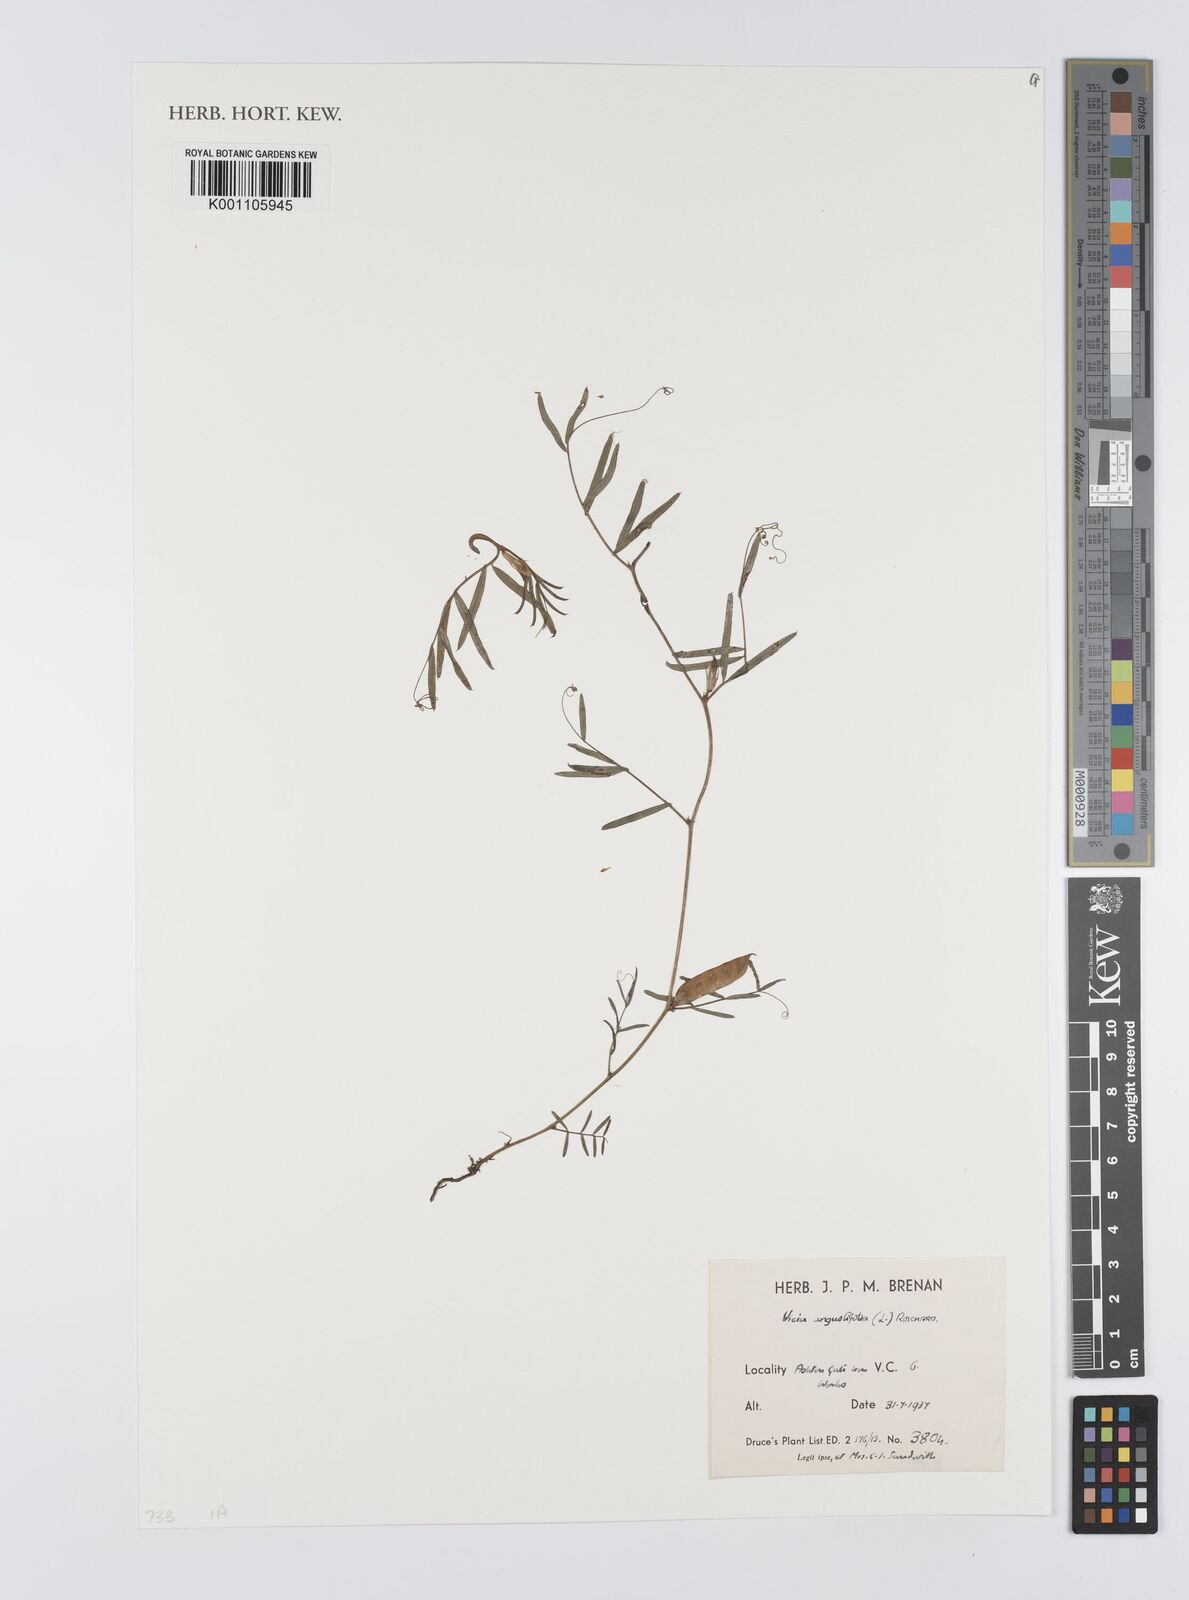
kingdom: Plantae
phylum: Tracheophyta
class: Magnoliopsida
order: Fabales
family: Fabaceae
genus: Vicia
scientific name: Vicia sativa
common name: Garden vetch
